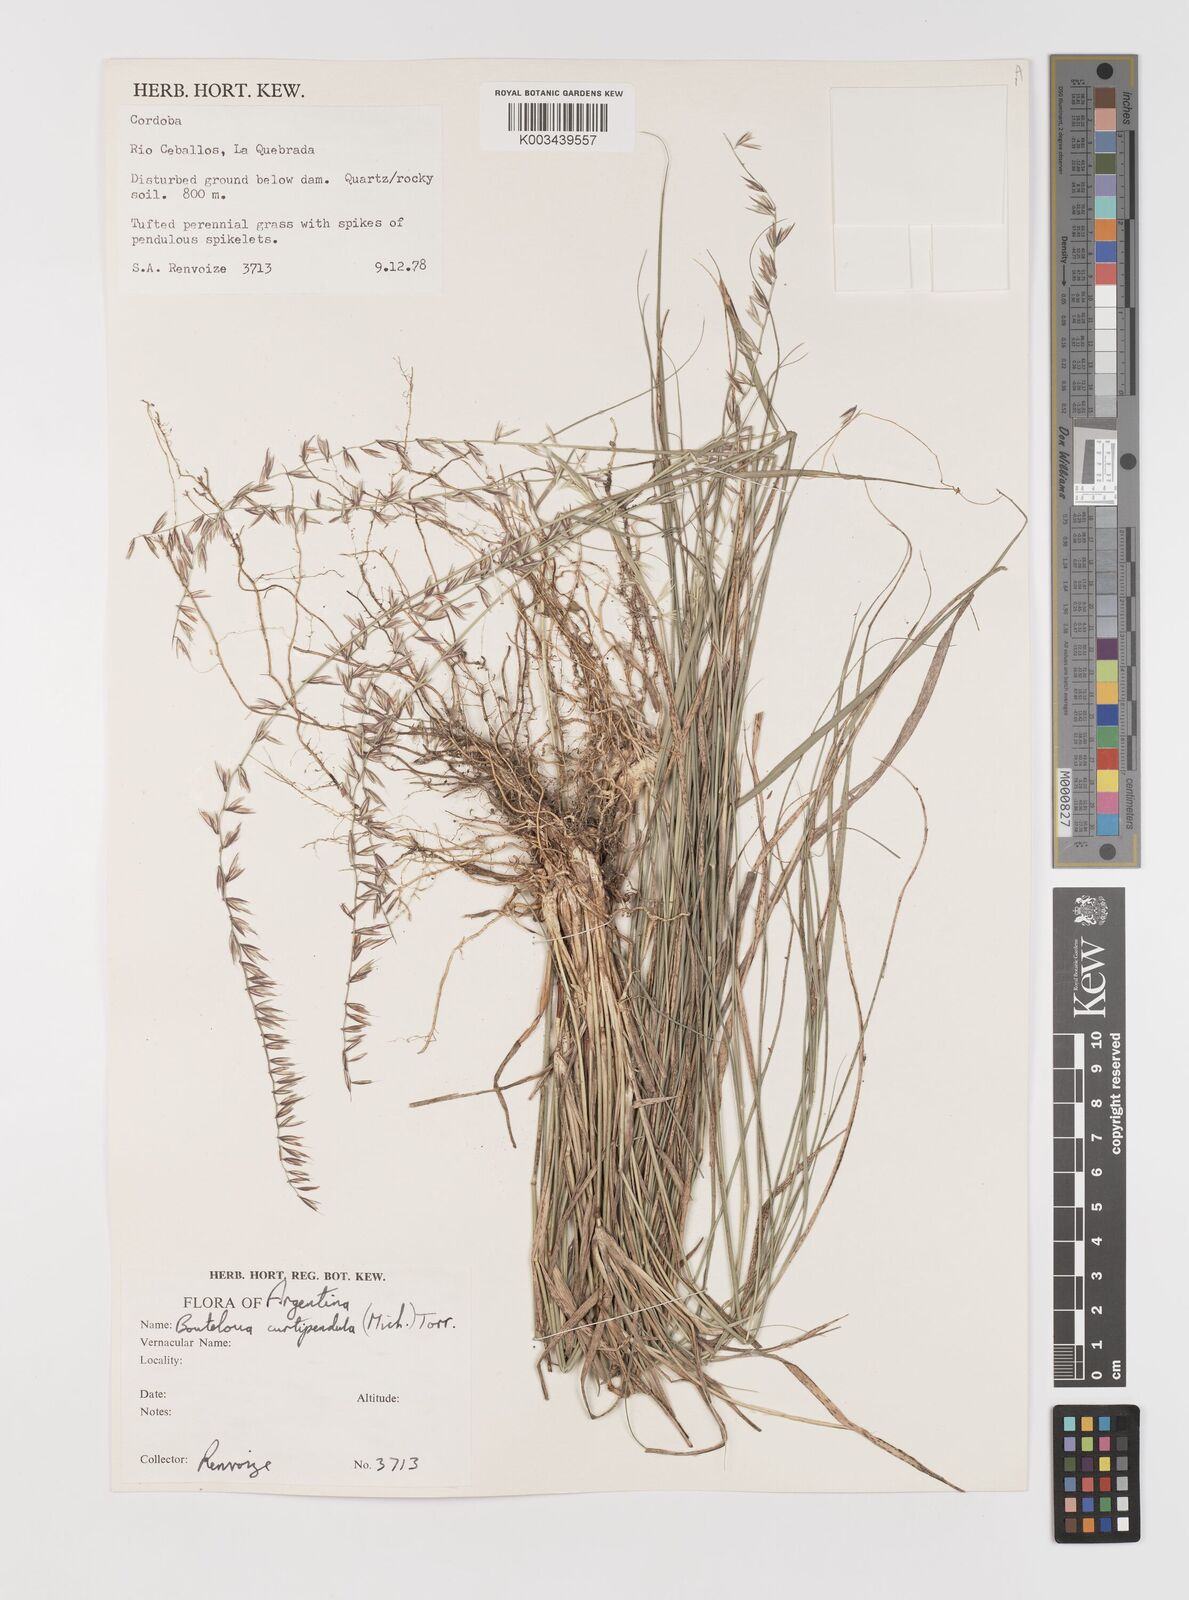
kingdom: Plantae
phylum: Tracheophyta
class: Liliopsida
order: Poales
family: Poaceae
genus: Bouteloua
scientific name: Bouteloua curtipendula
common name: Side-oats grama
